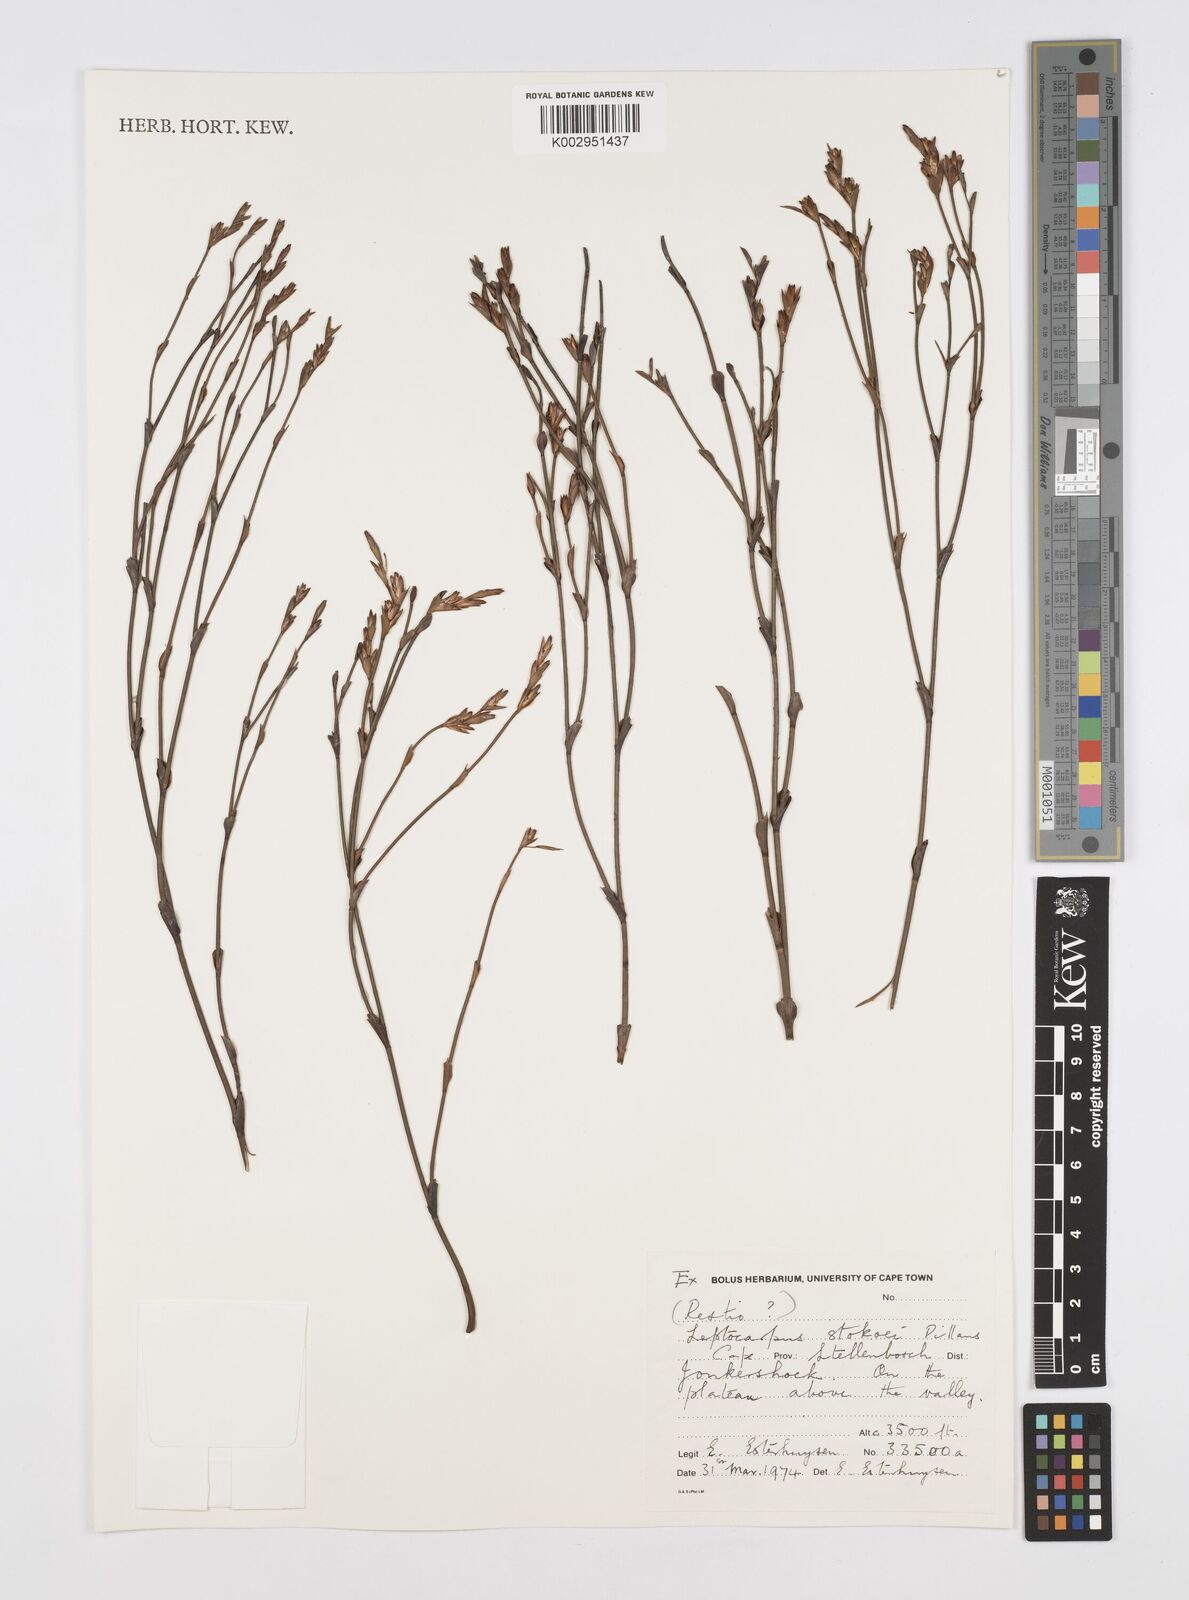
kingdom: Plantae
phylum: Tracheophyta
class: Liliopsida
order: Poales
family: Restionaceae
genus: Restio
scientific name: Restio pillansii
